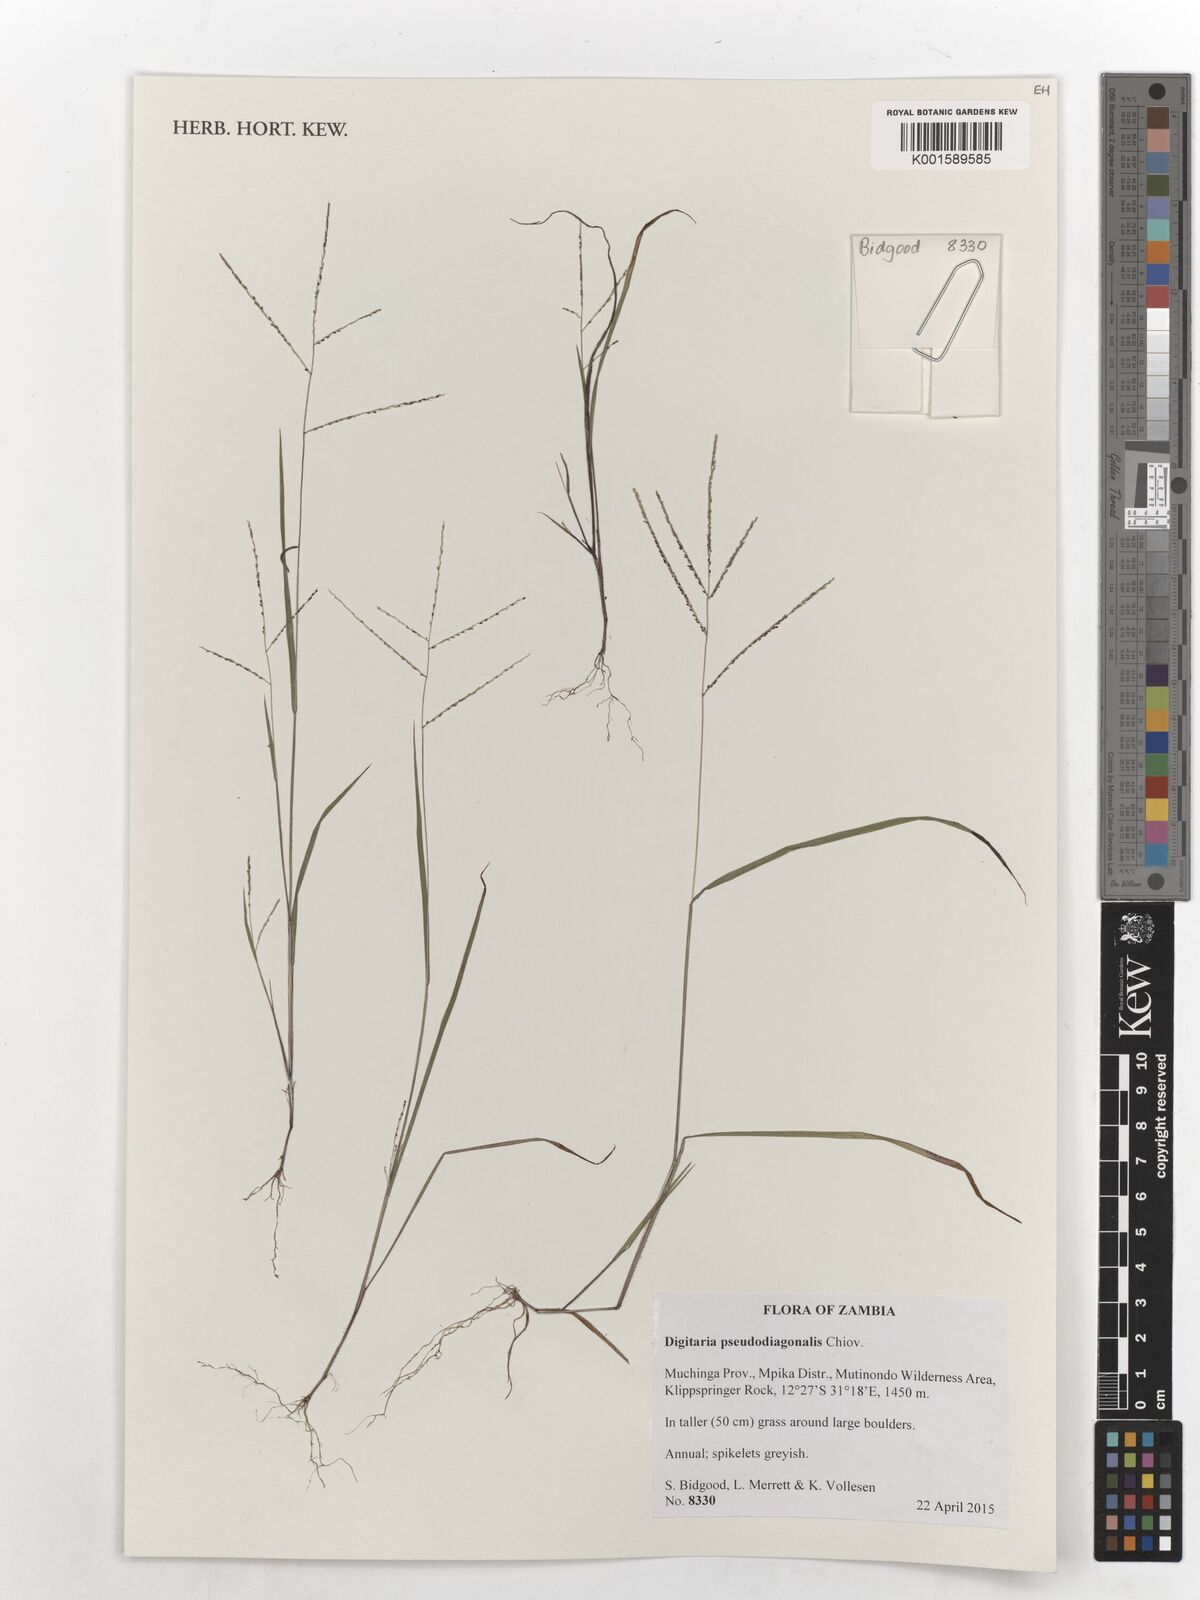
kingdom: Plantae
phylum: Tracheophyta
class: Liliopsida
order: Poales
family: Poaceae
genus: Digitaria
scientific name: Digitaria pseudodiagonalis
